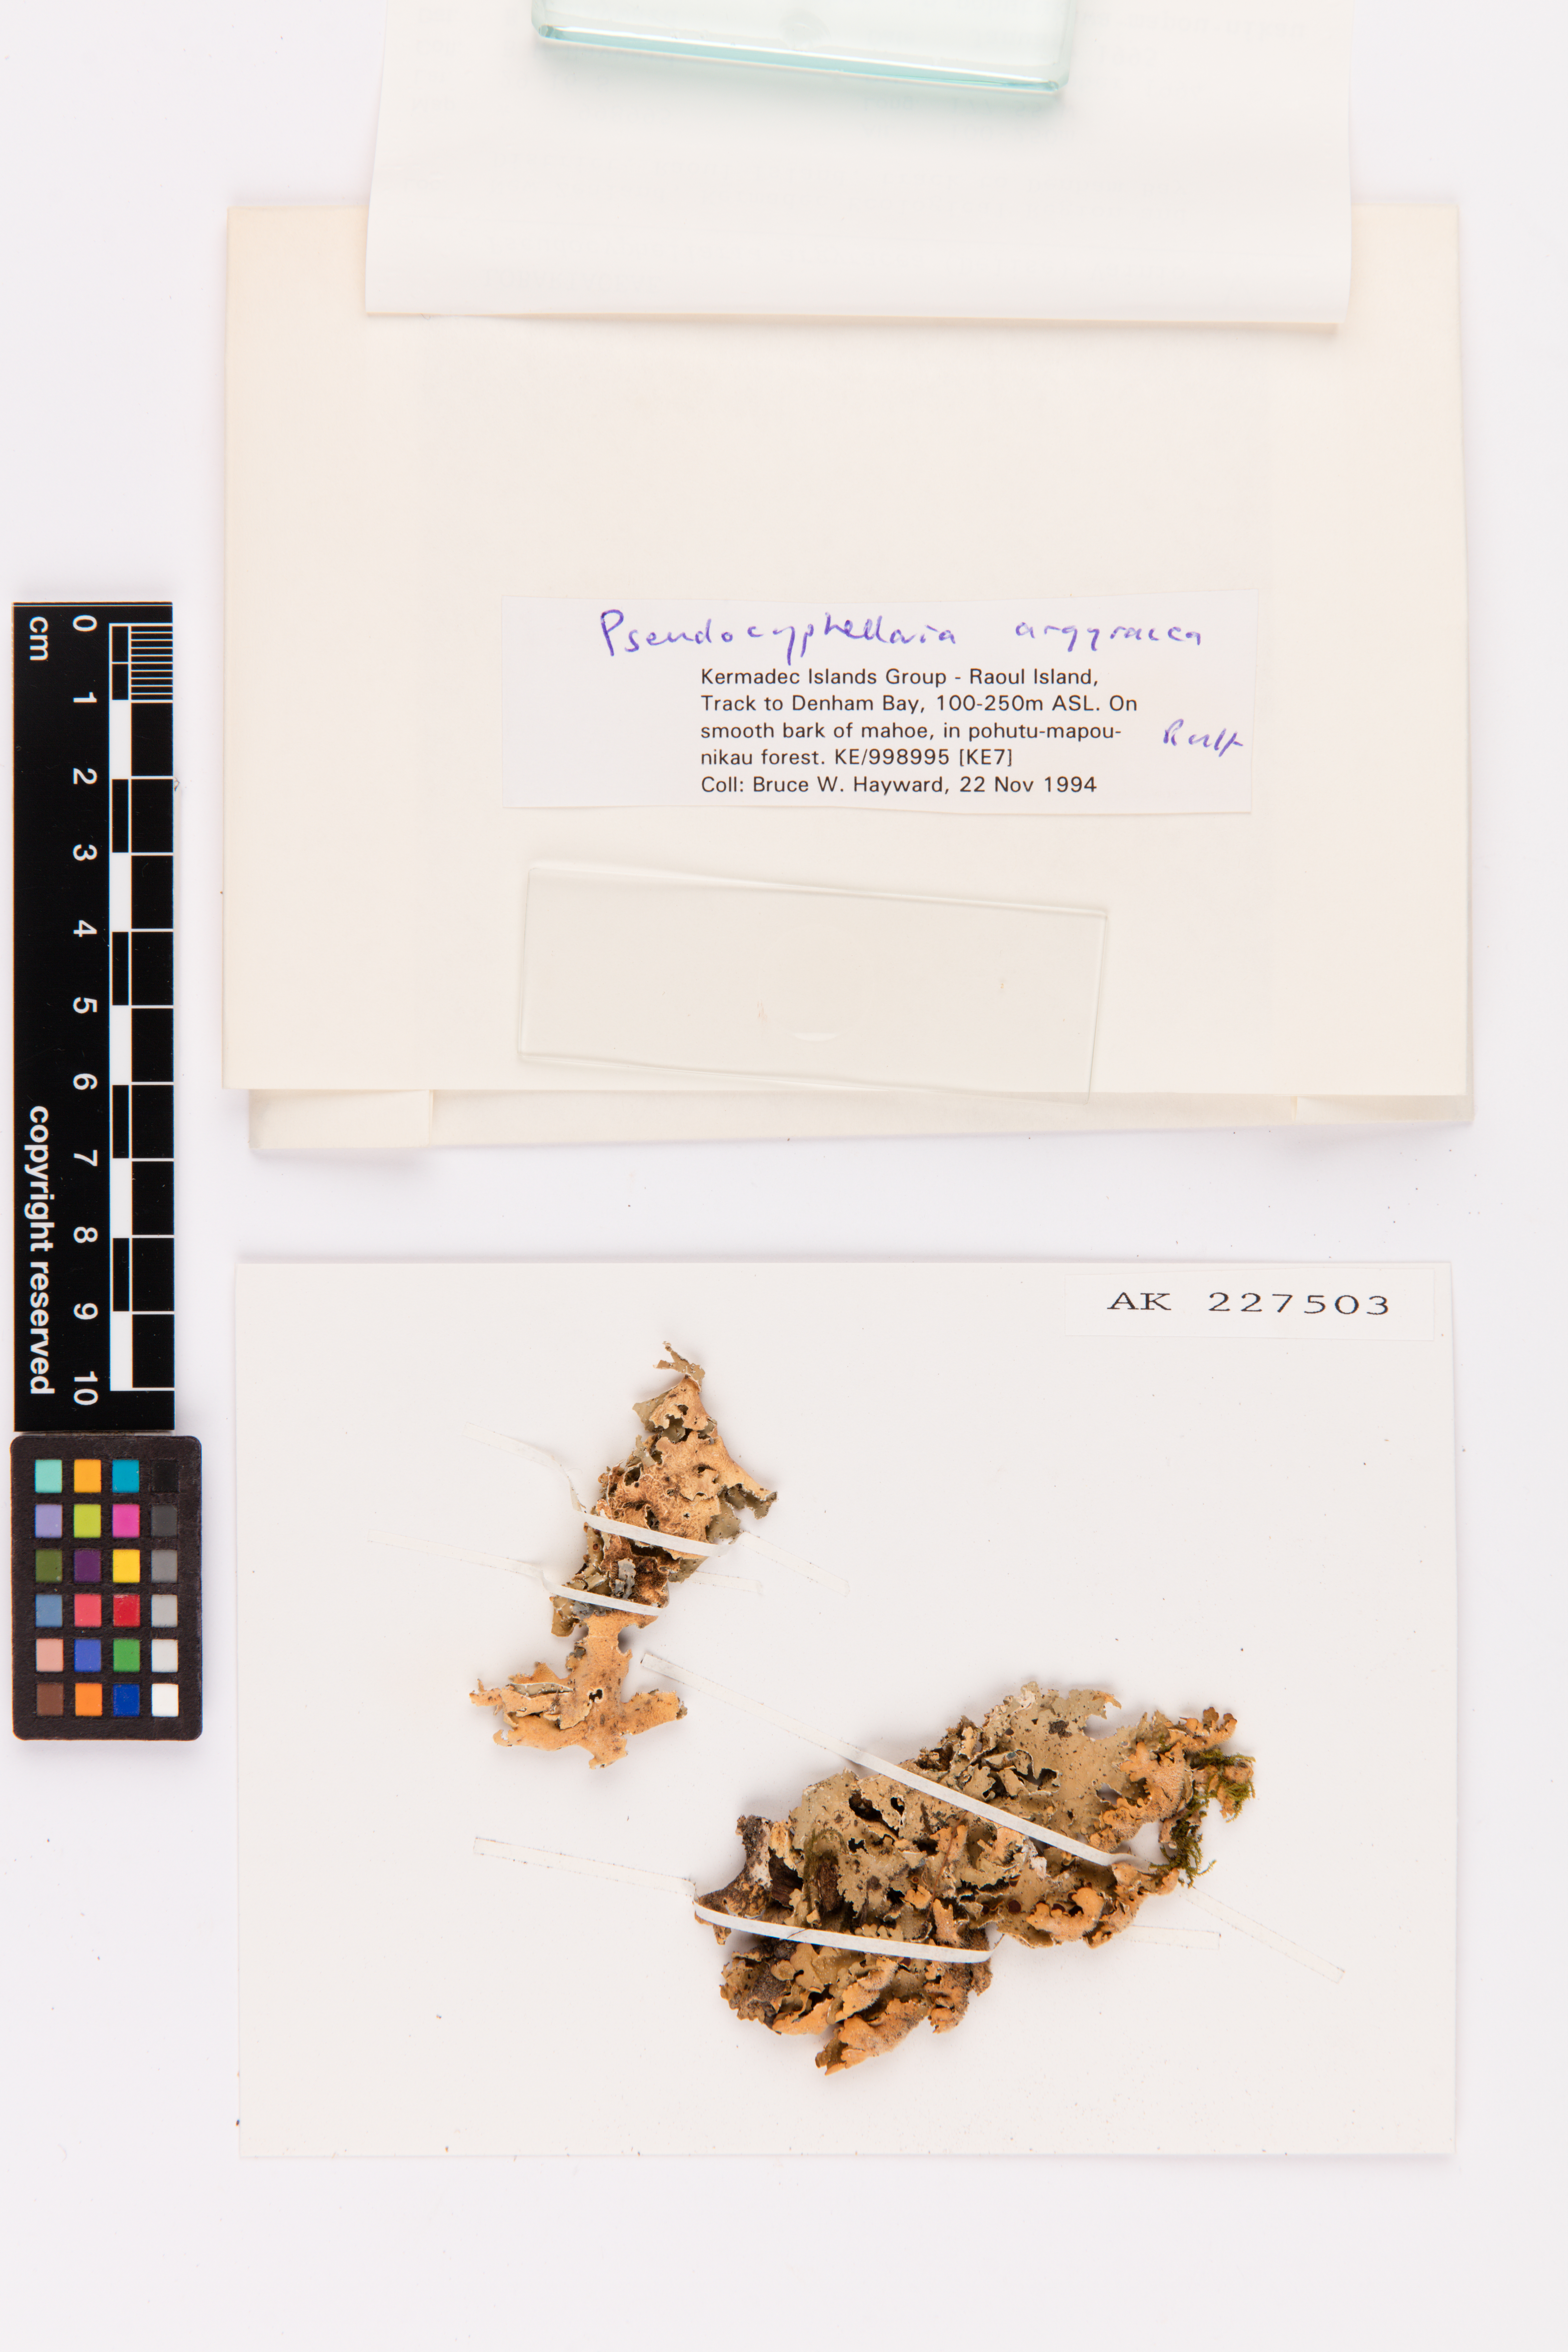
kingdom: Fungi
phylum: Ascomycota
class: Lecanoromycetes
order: Peltigerales
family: Lobariaceae
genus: Pseudocyphellaria
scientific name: Pseudocyphellaria argyracea
